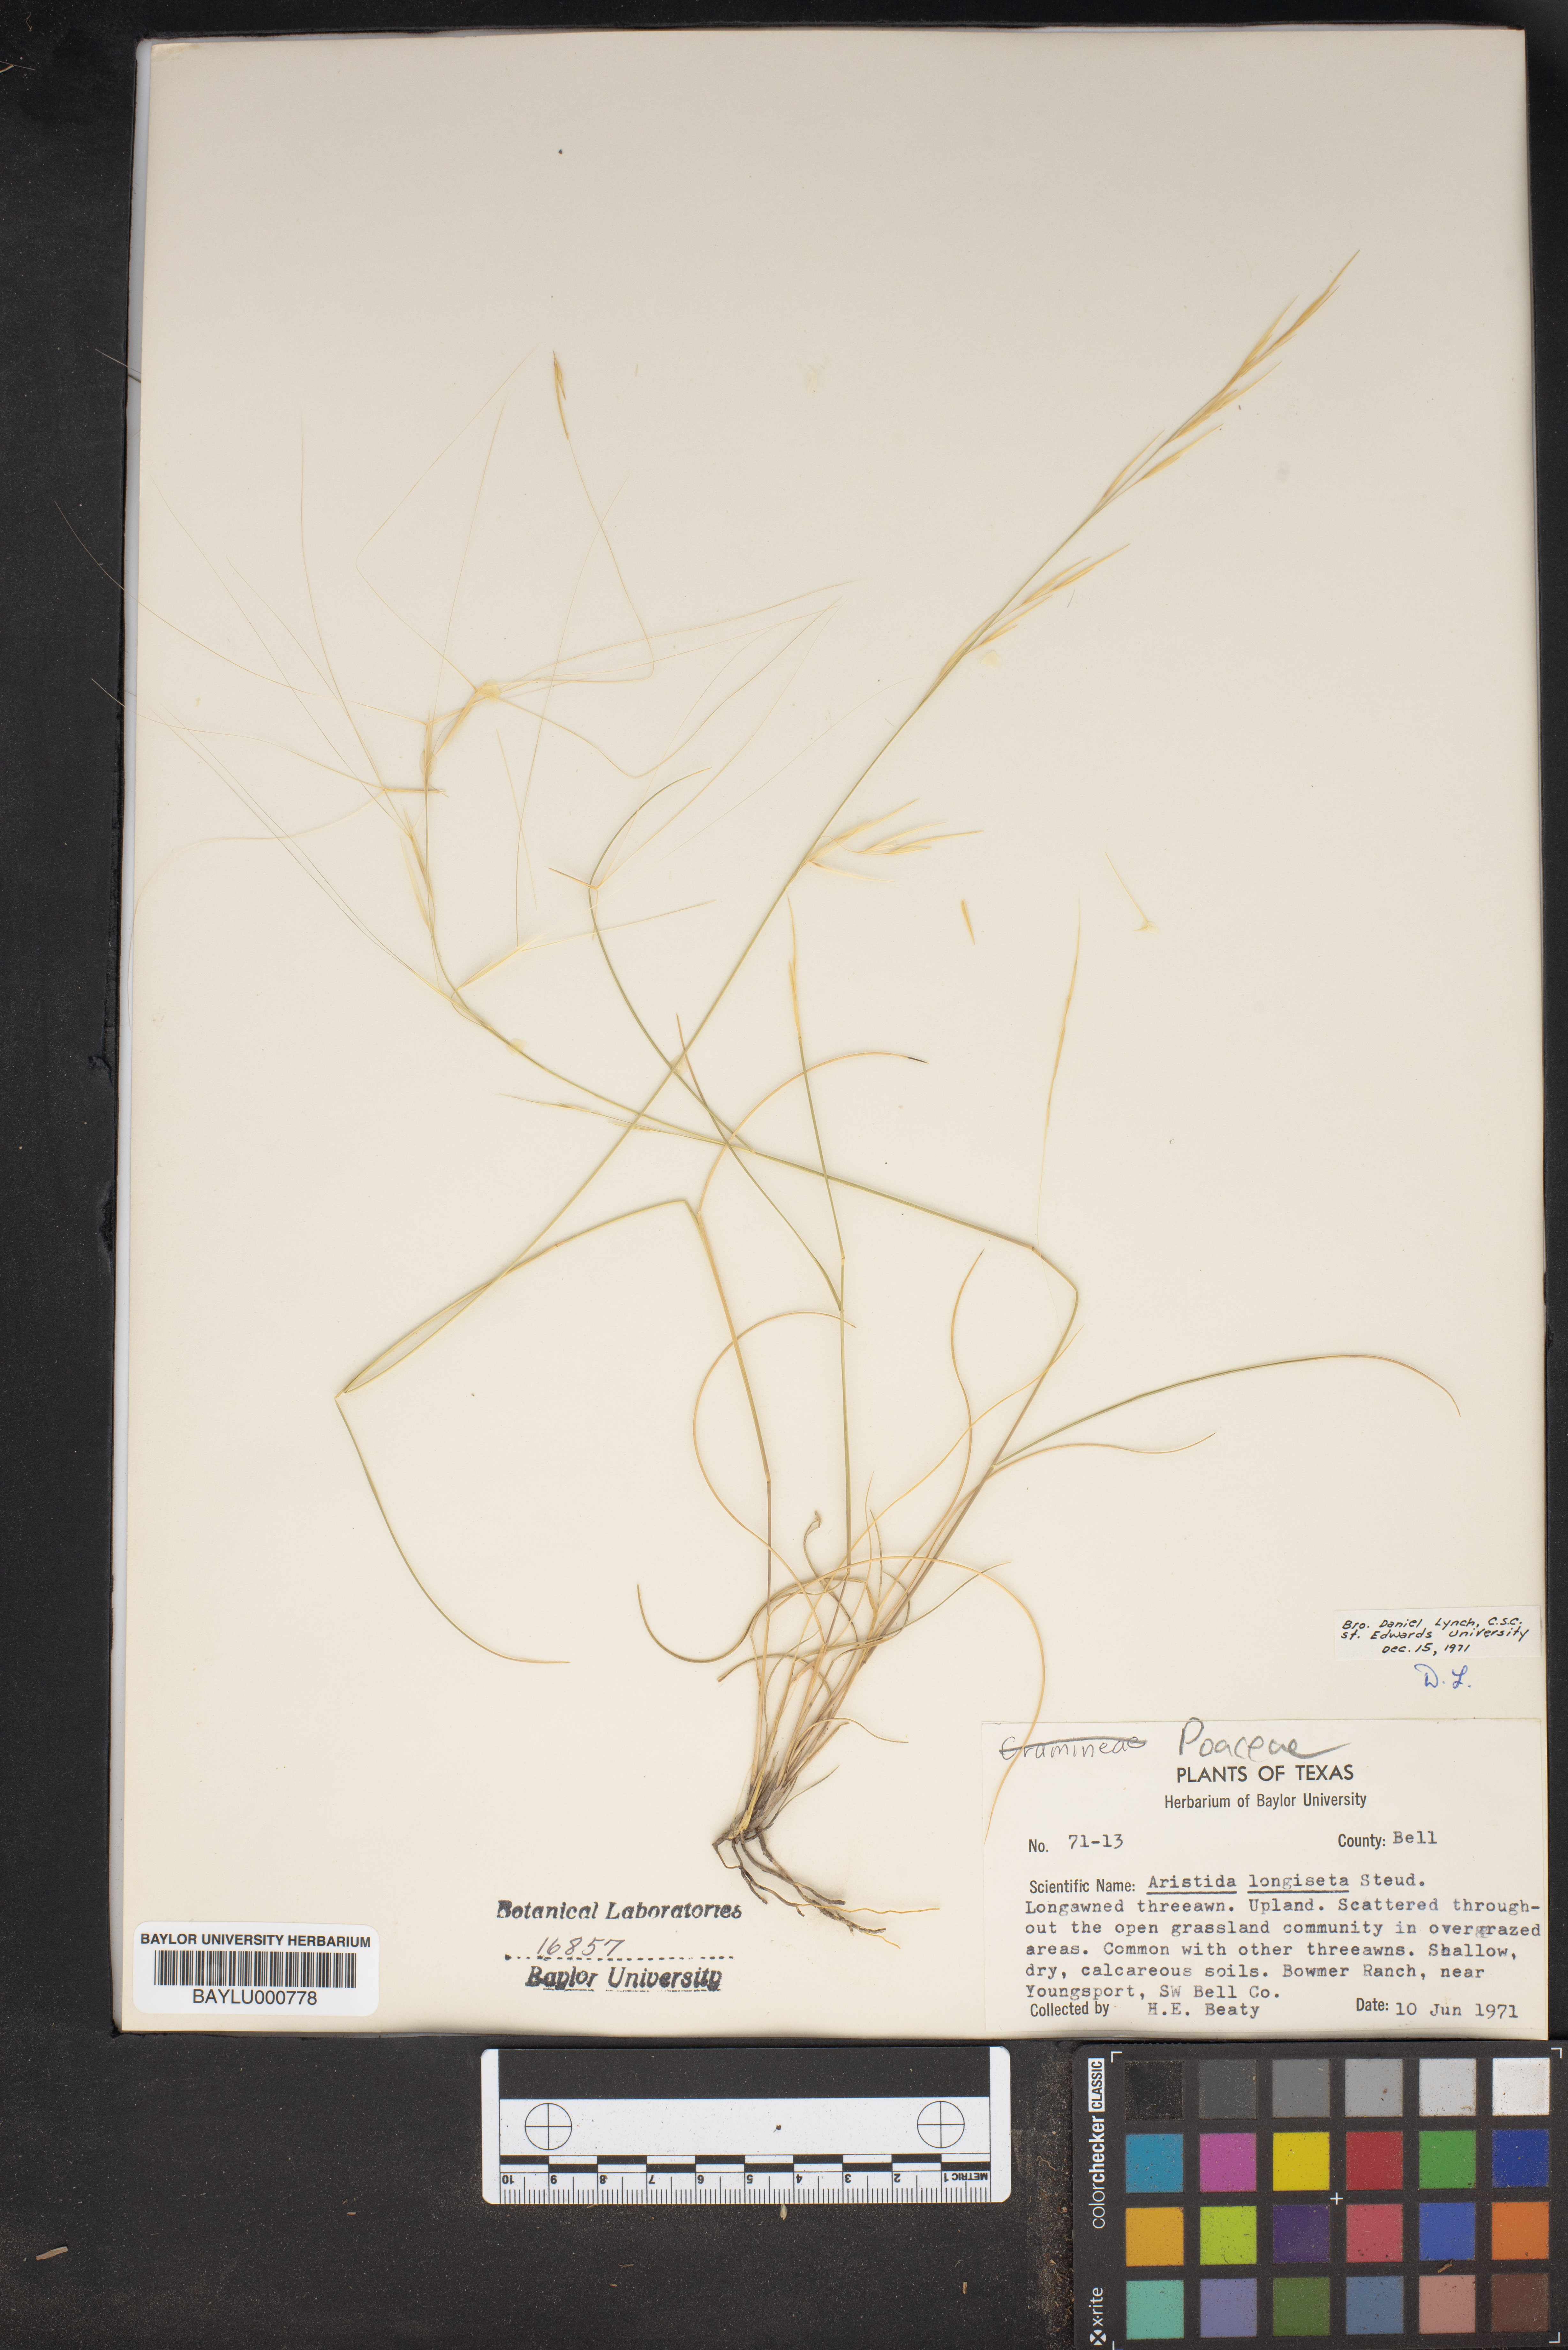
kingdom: Plantae
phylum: Tracheophyta
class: Liliopsida
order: Poales
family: Poaceae
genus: Aristida
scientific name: Aristida longiseta
